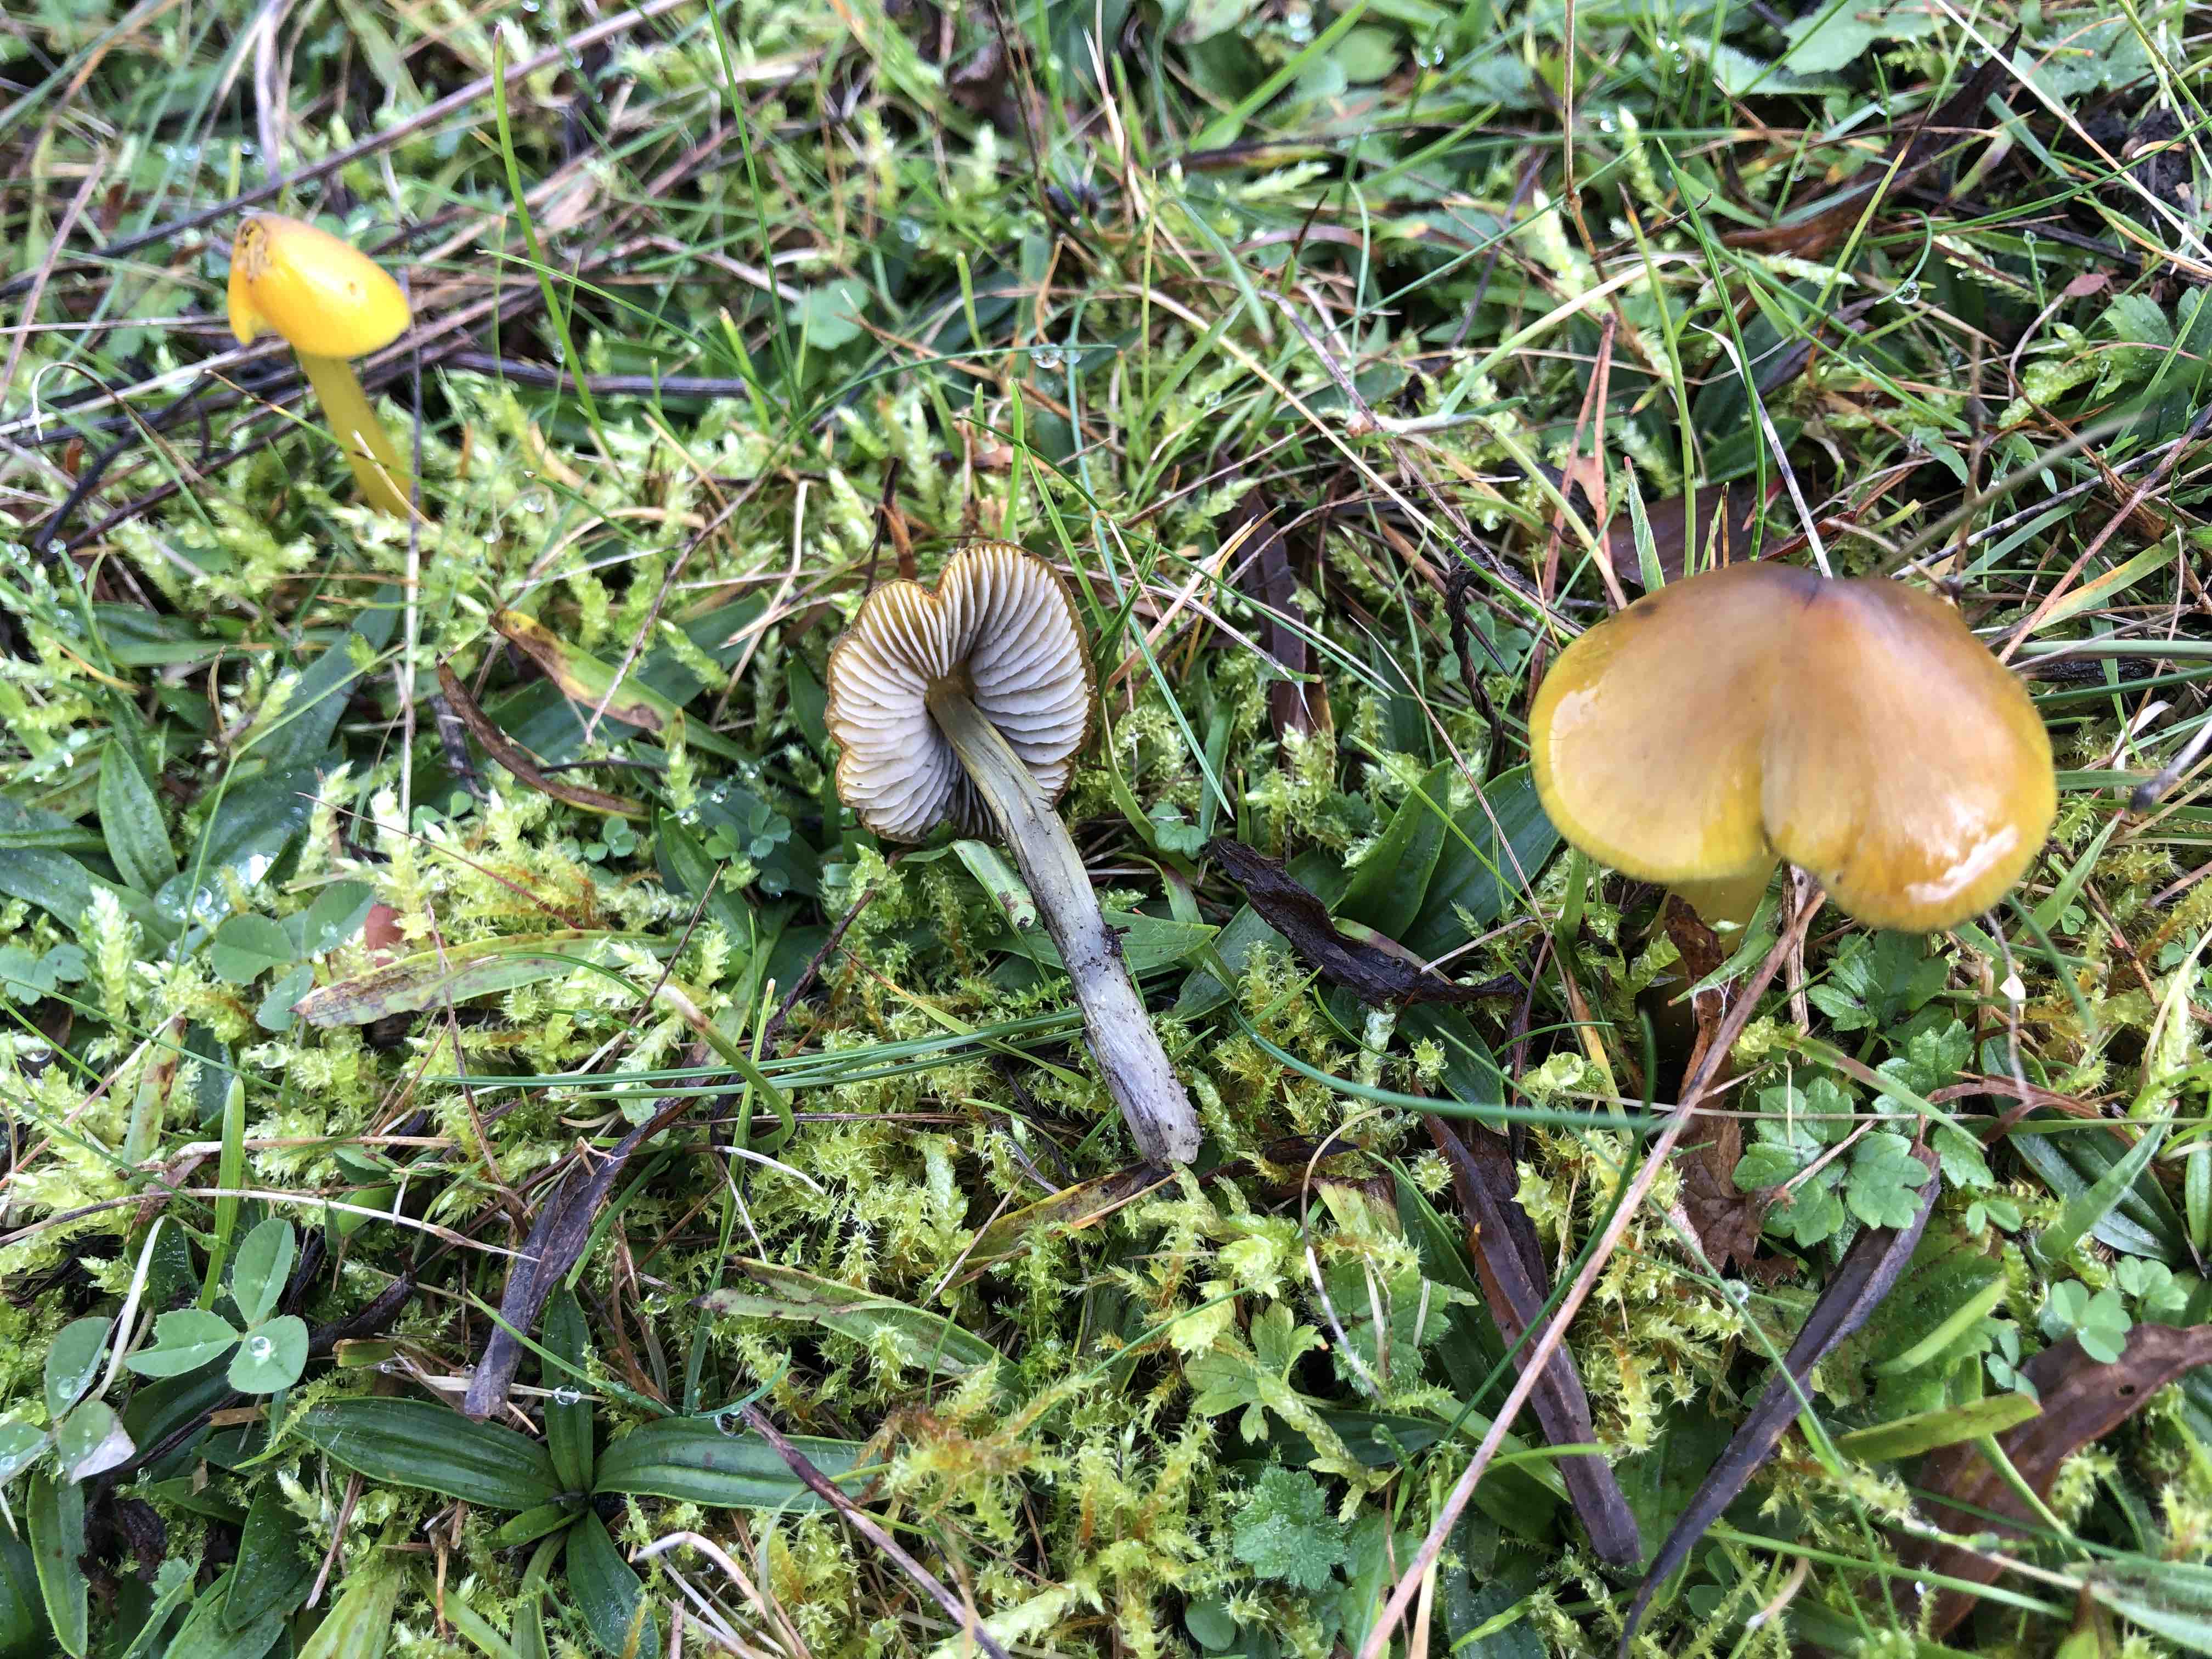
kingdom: Fungi
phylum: Basidiomycota
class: Agaricomycetes
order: Agaricales
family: Hygrophoraceae
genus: Hygrocybe
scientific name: Hygrocybe conica
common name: kegle-vokshat
